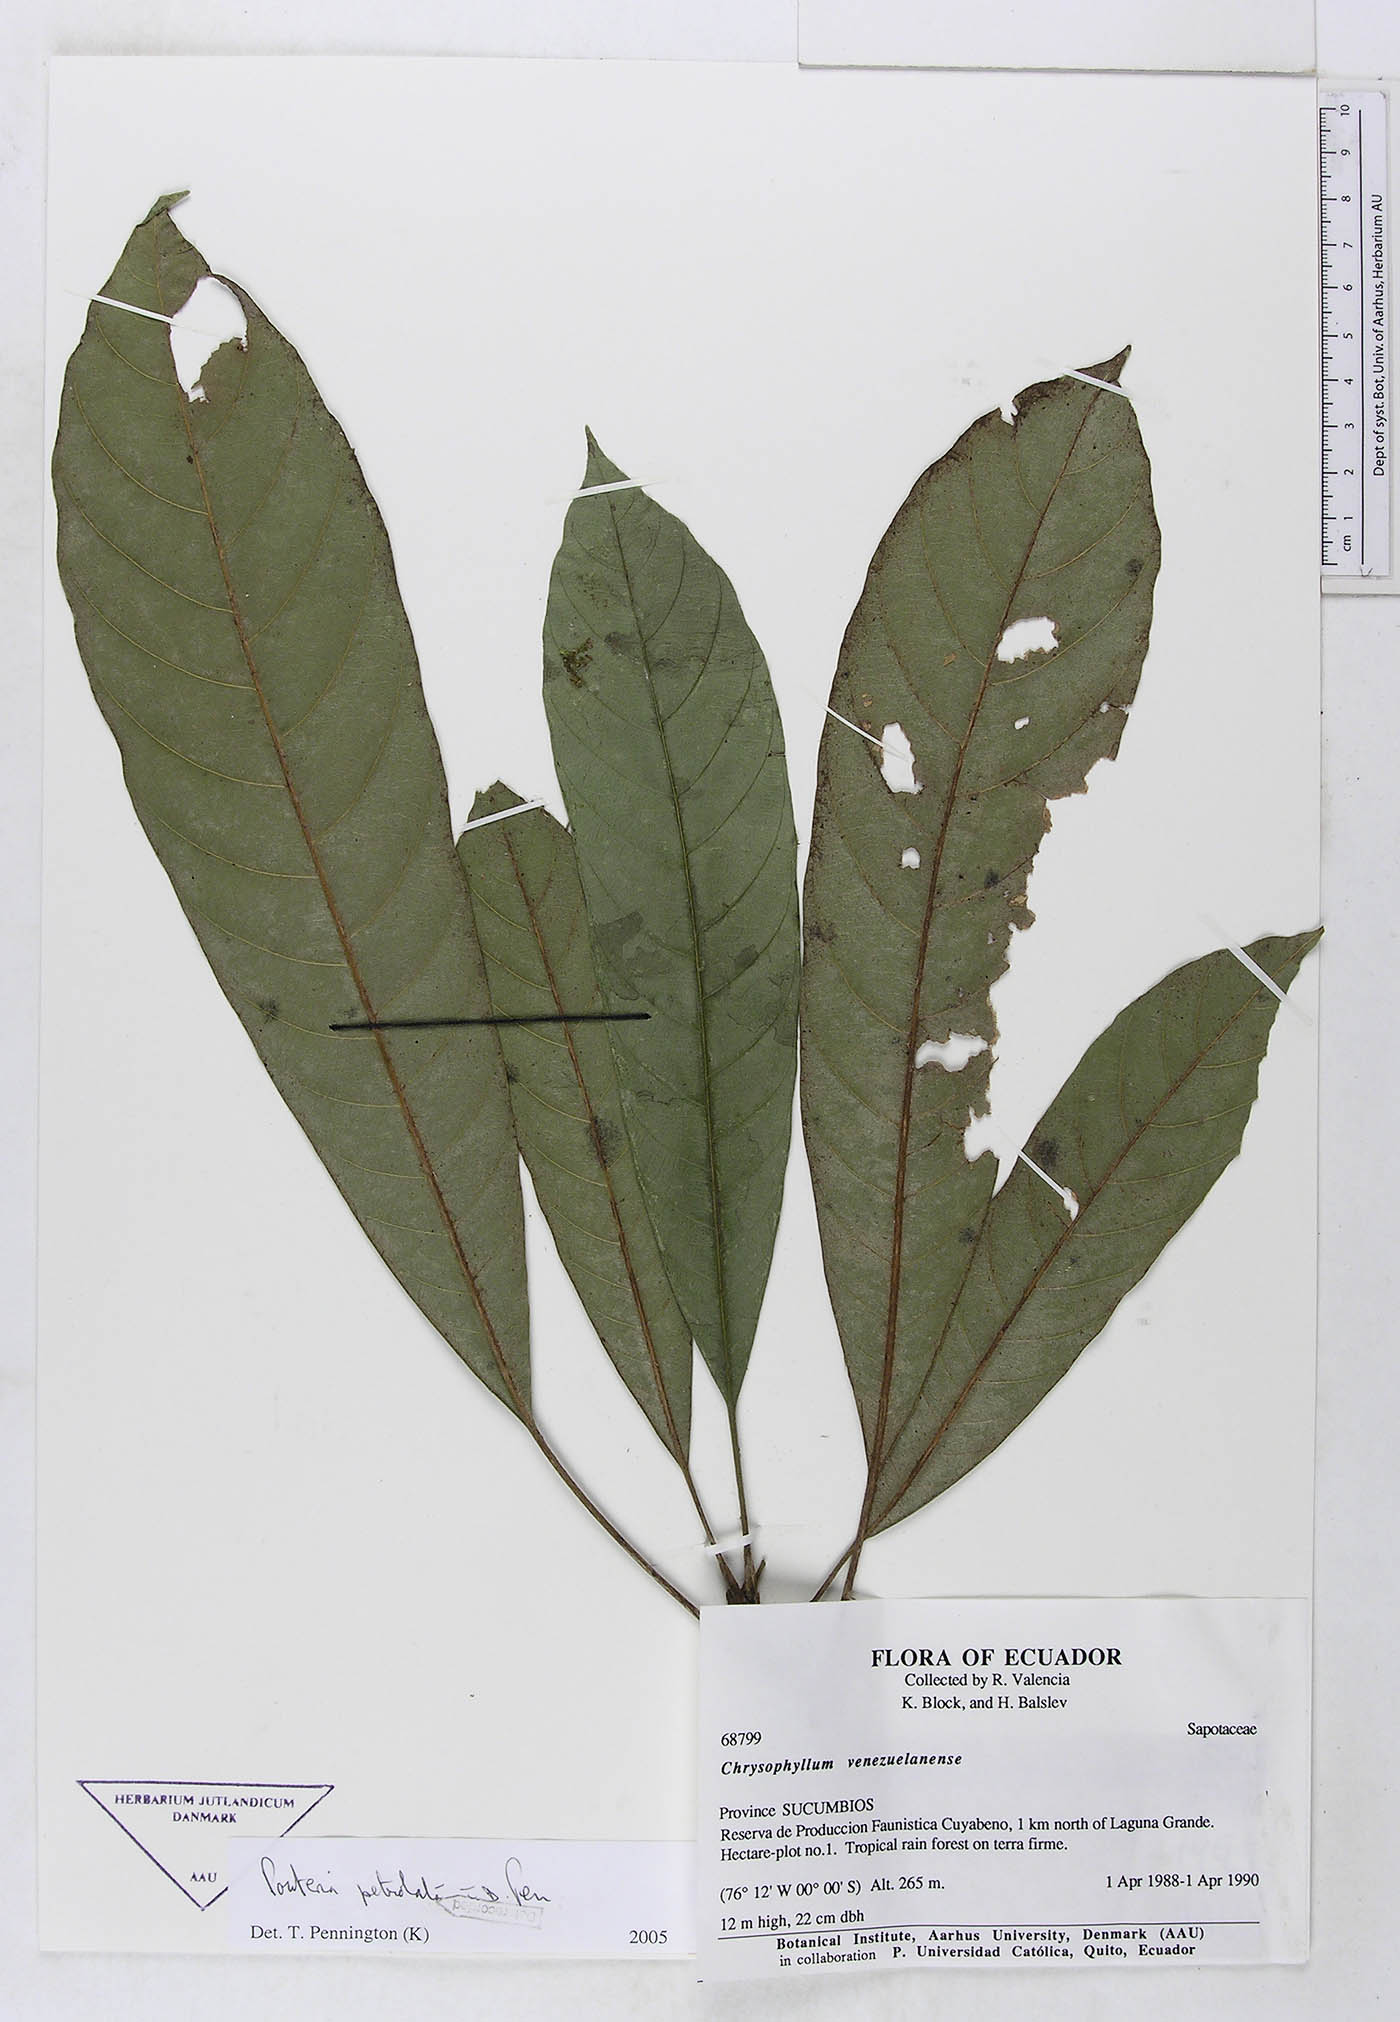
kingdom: Plantae
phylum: Tracheophyta
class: Magnoliopsida
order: Ericales
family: Sapotaceae
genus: Pouteria
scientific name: Pouteria petiolata
